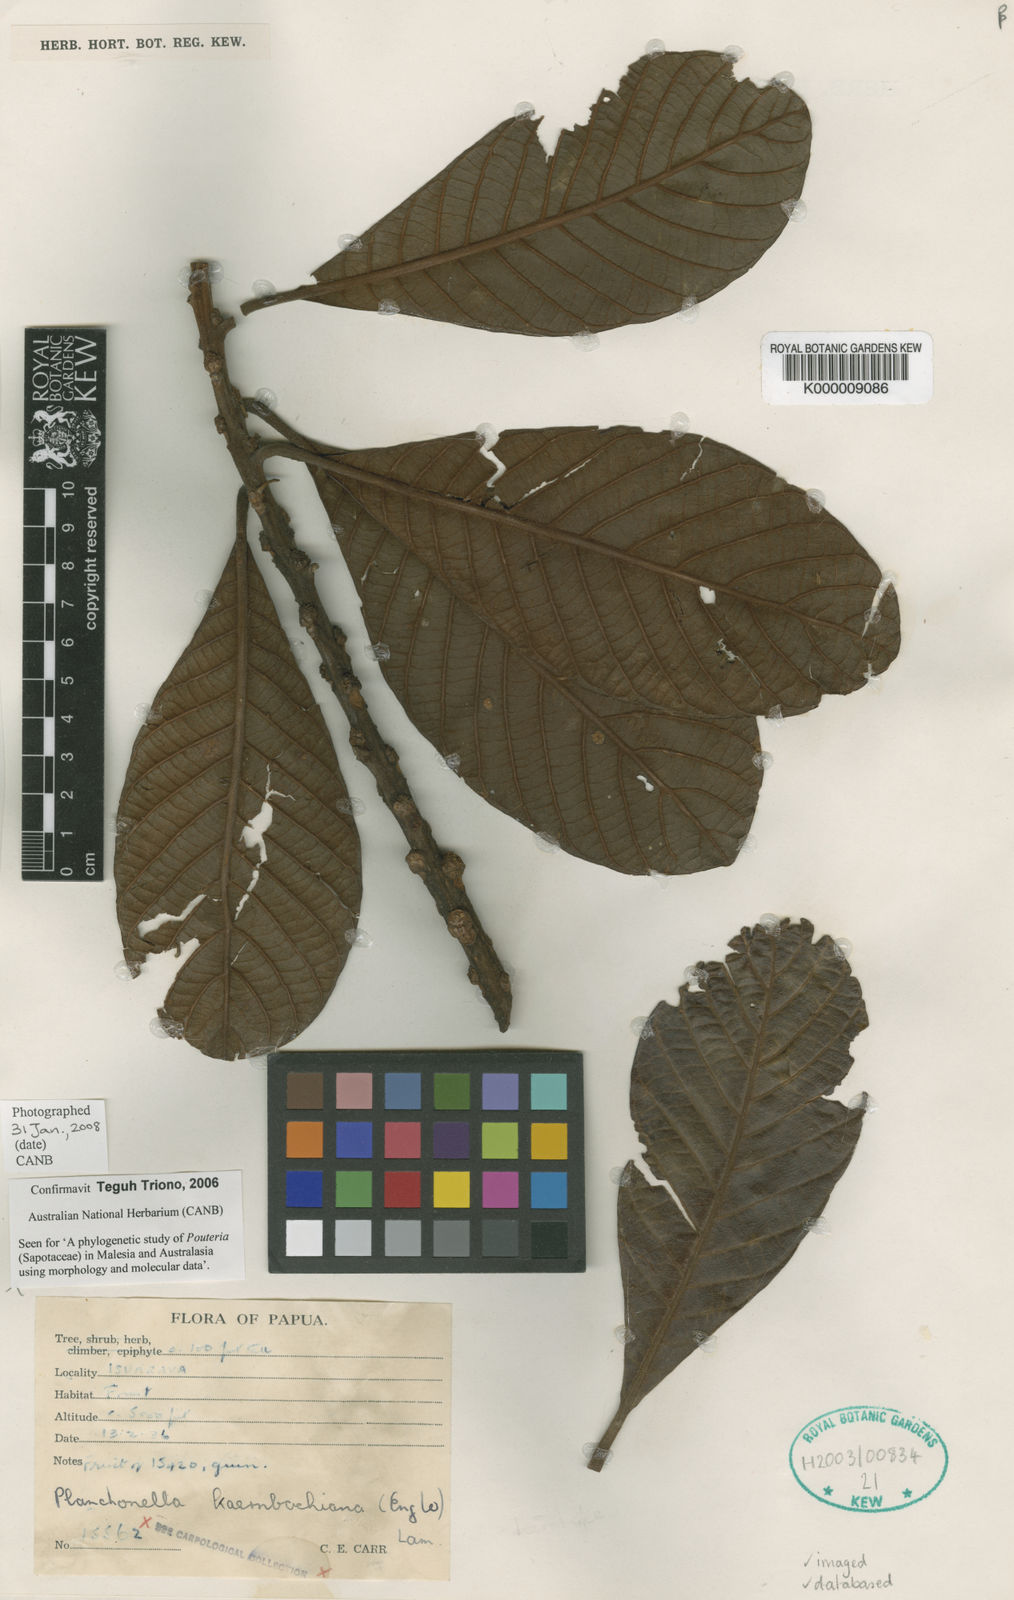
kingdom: Plantae
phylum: Tracheophyta
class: Magnoliopsida
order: Ericales
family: Sapotaceae
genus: Planchonella
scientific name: Planchonella kaernbachiana
